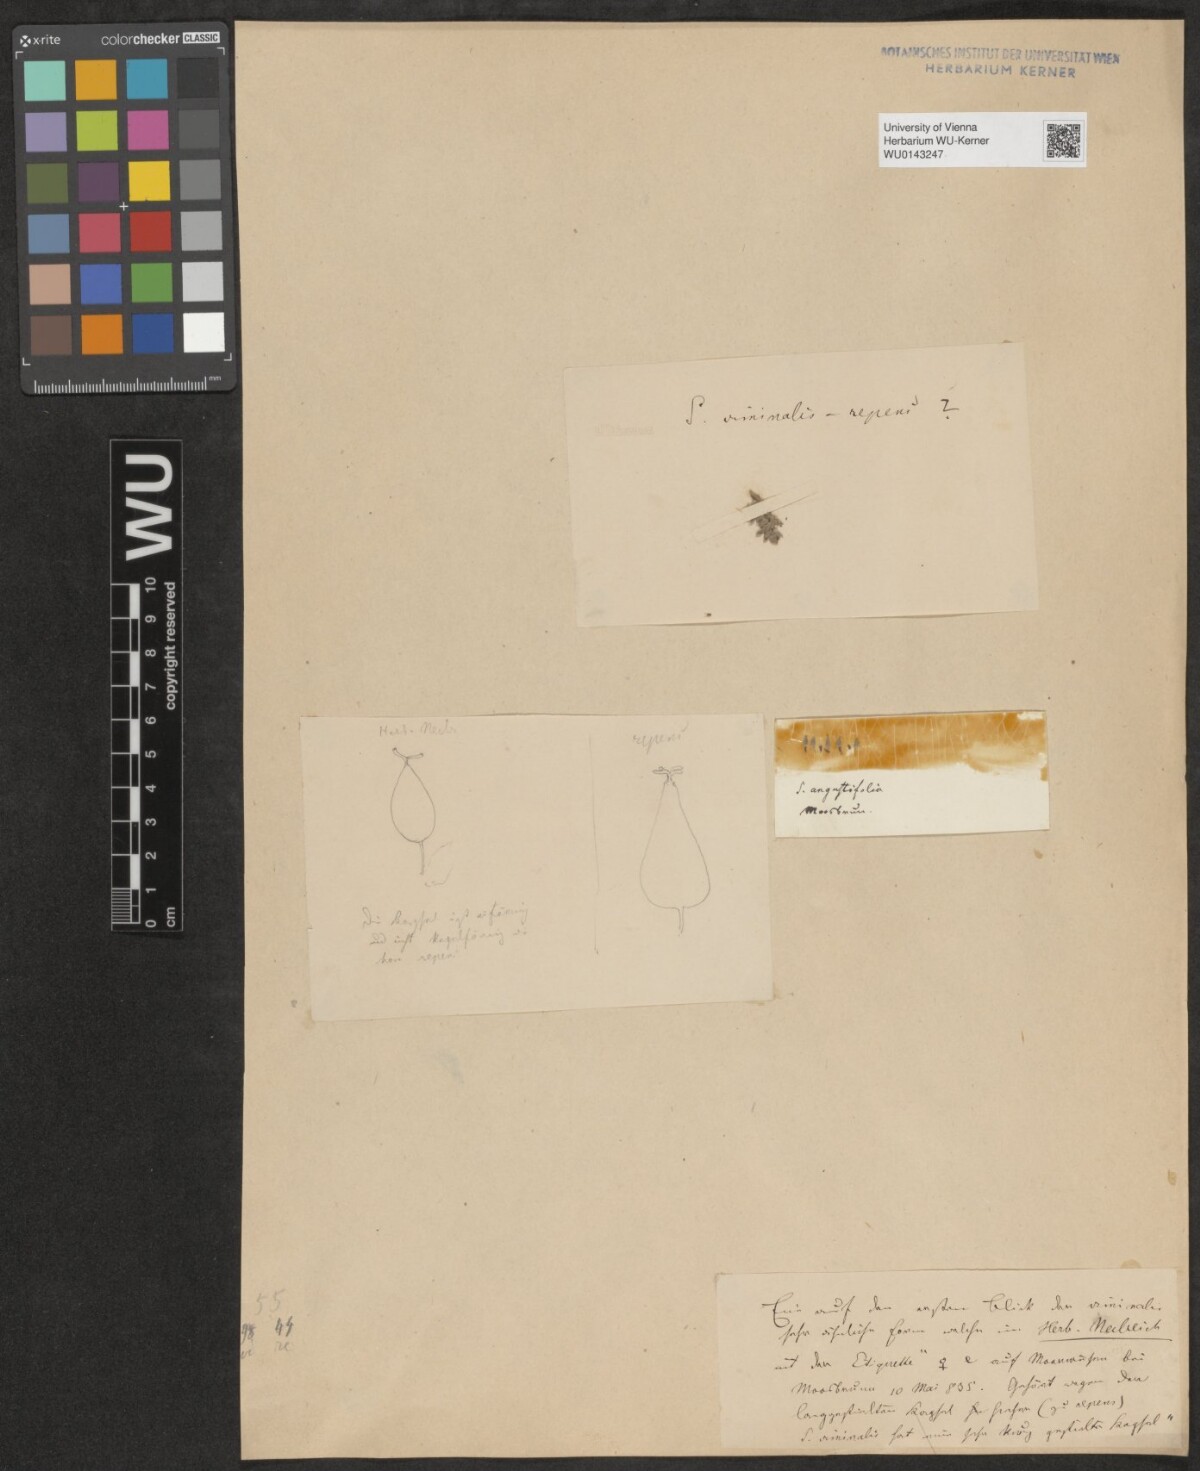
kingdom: Plantae
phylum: Tracheophyta
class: Magnoliopsida
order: Malpighiales
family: Salicaceae
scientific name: Salicaceae
